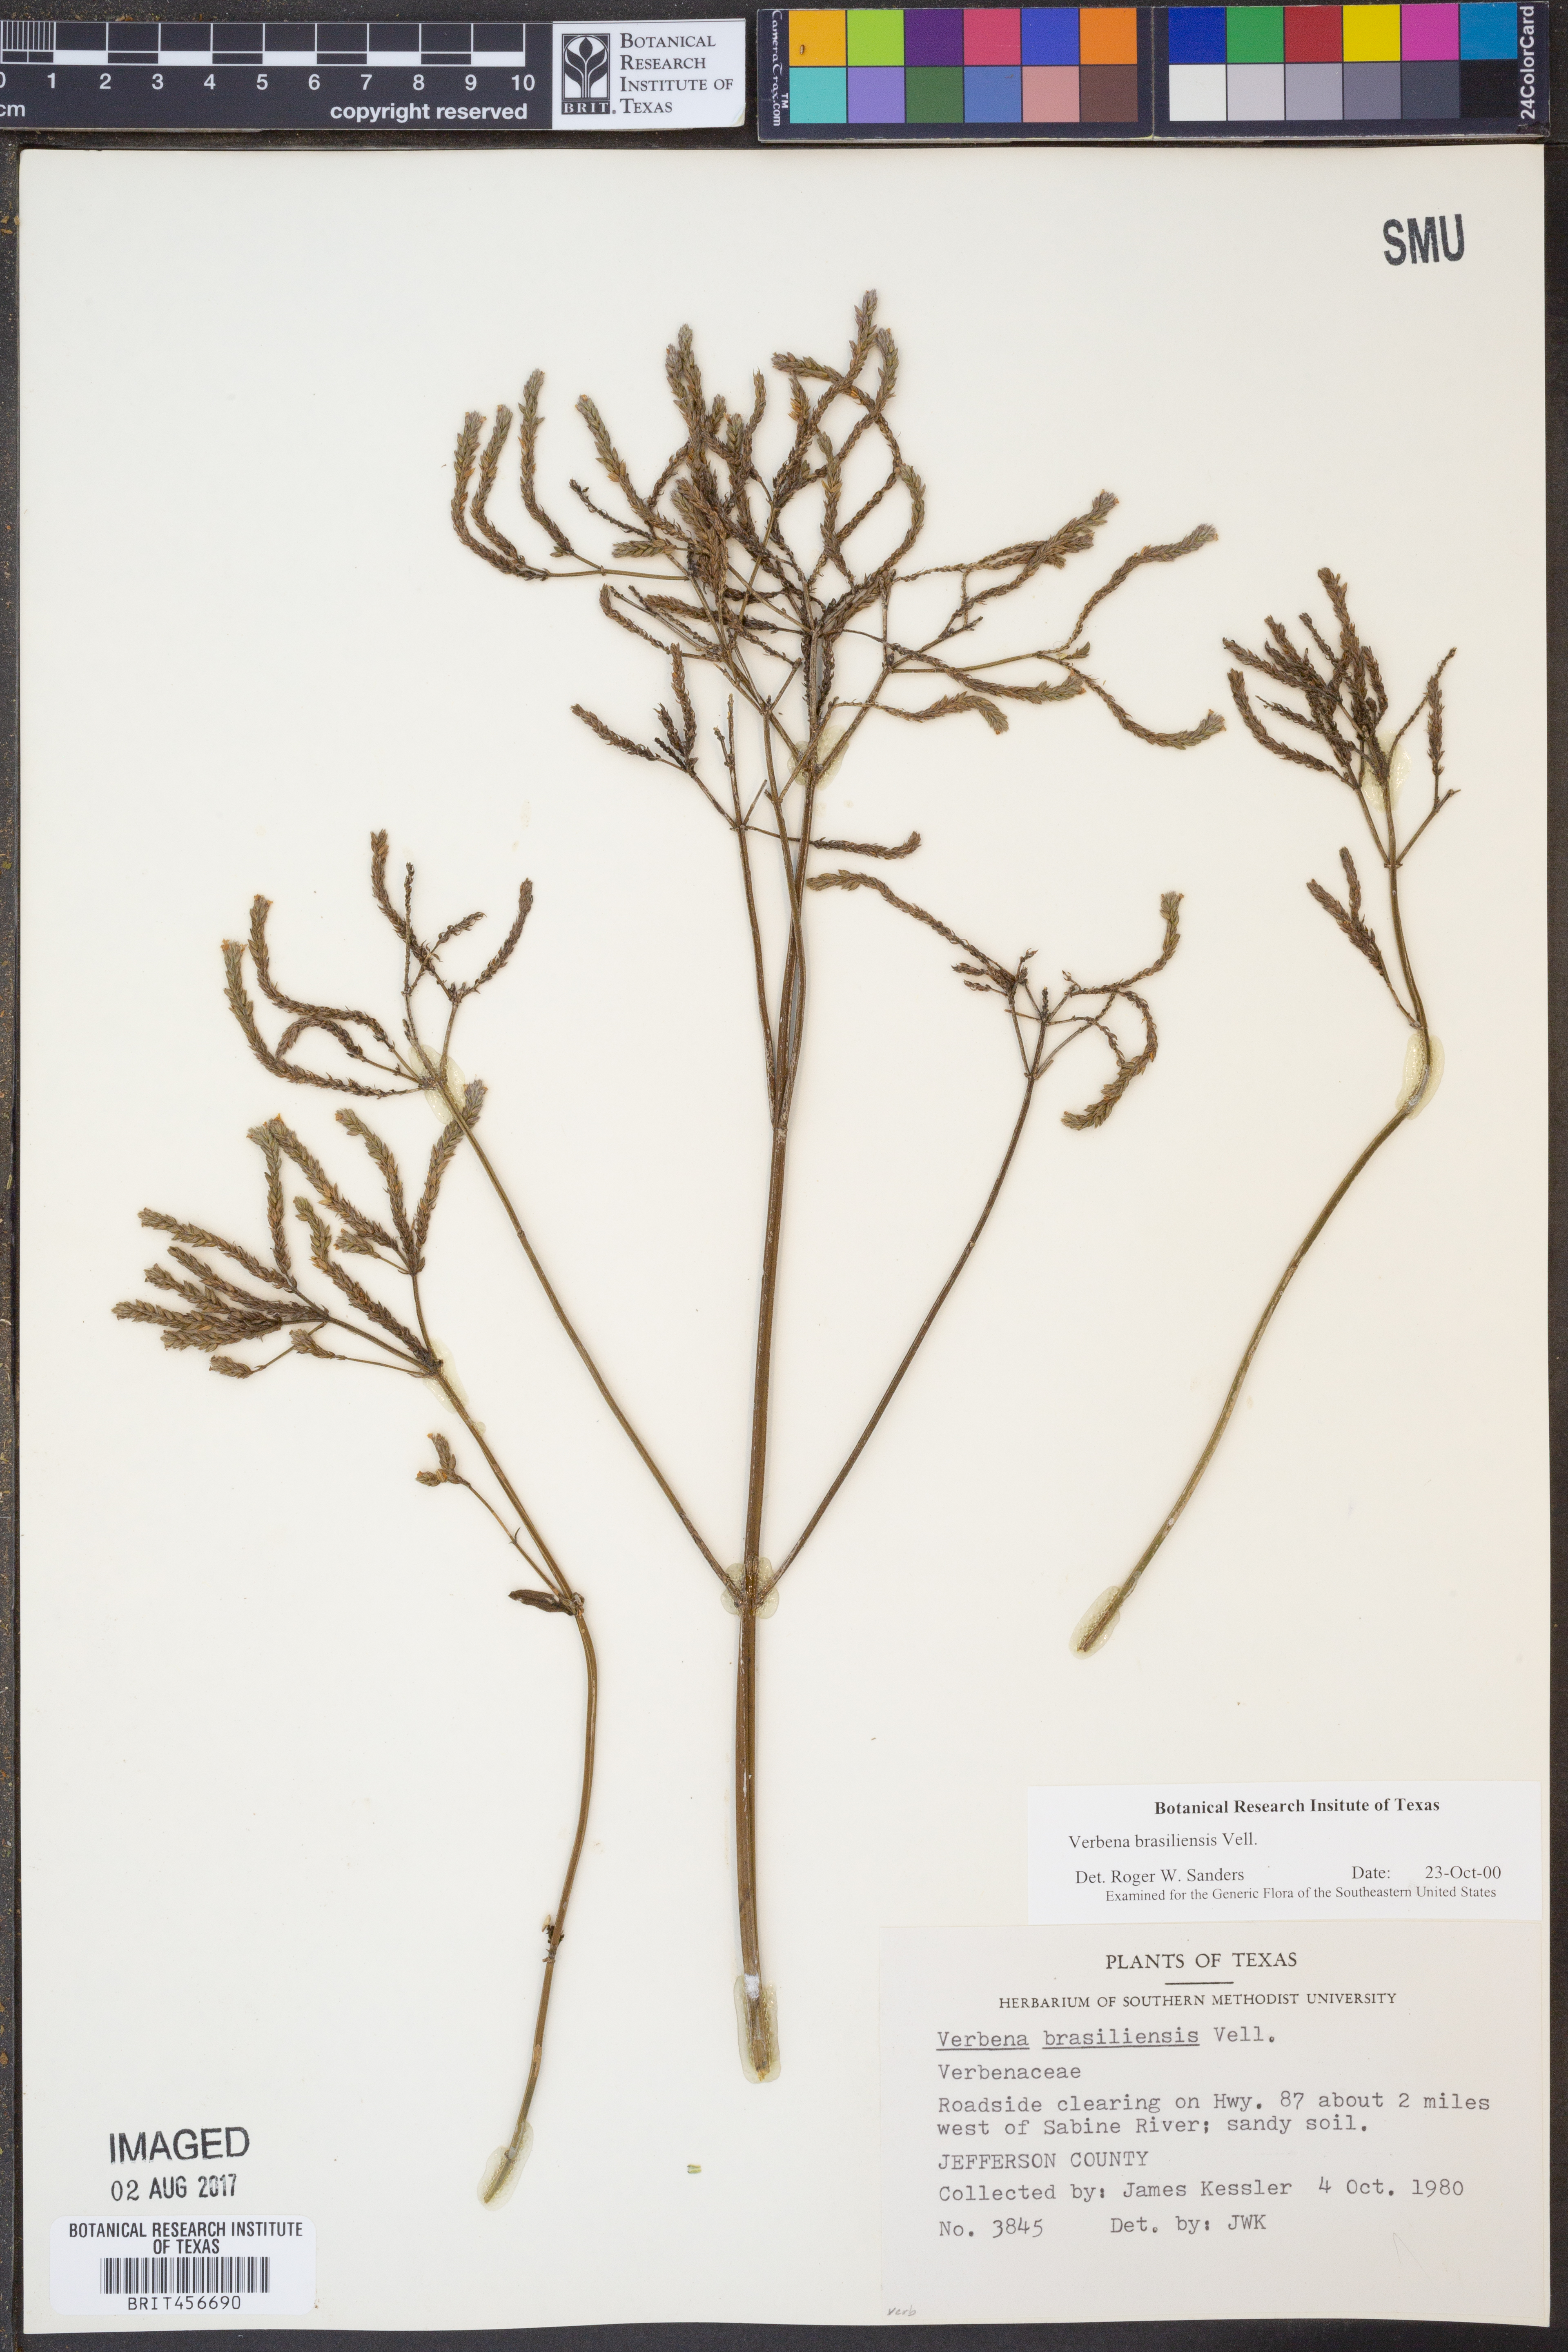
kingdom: Plantae
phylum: Tracheophyta
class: Magnoliopsida
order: Lamiales
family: Verbenaceae
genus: Verbena
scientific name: Verbena brasiliensis
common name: Brazilian vervain
